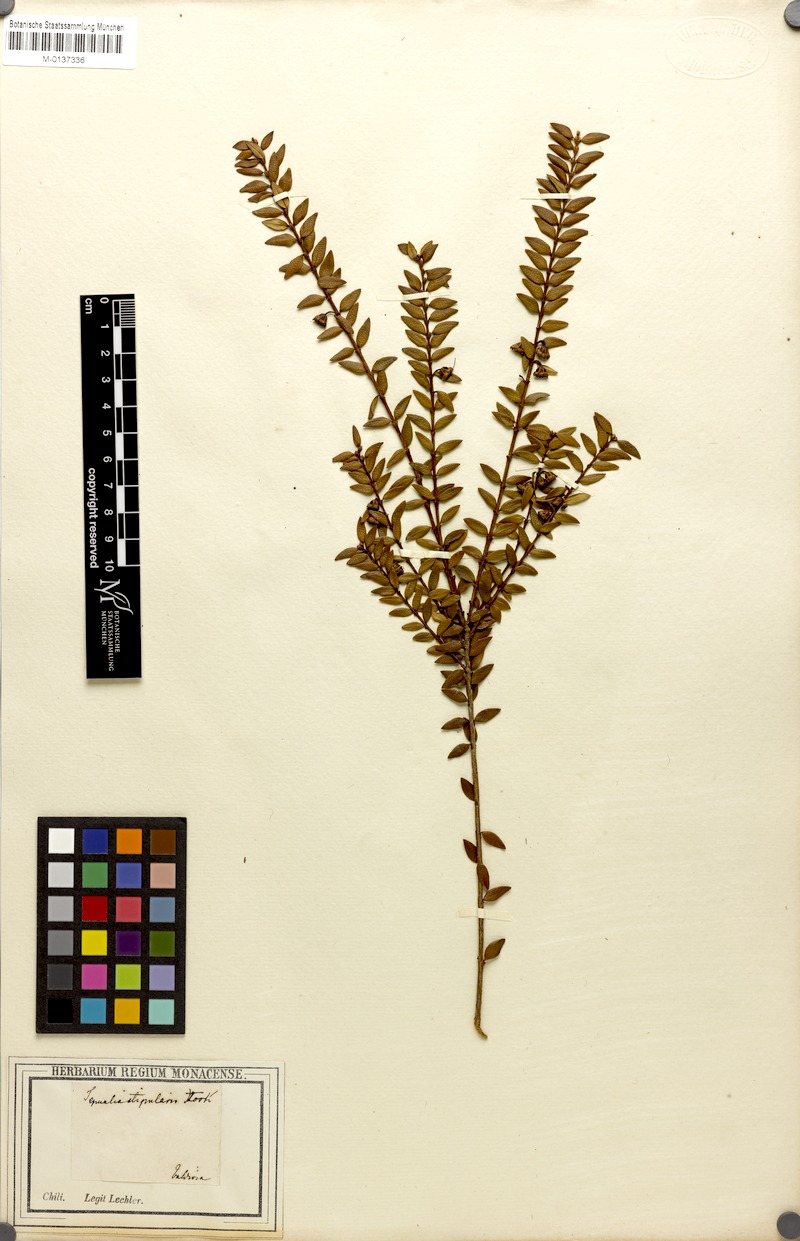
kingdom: Plantae
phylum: Tracheophyta
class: Magnoliopsida
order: Myrtales
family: Myrtaceae
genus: Tepualia
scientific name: Tepualia stipularis
